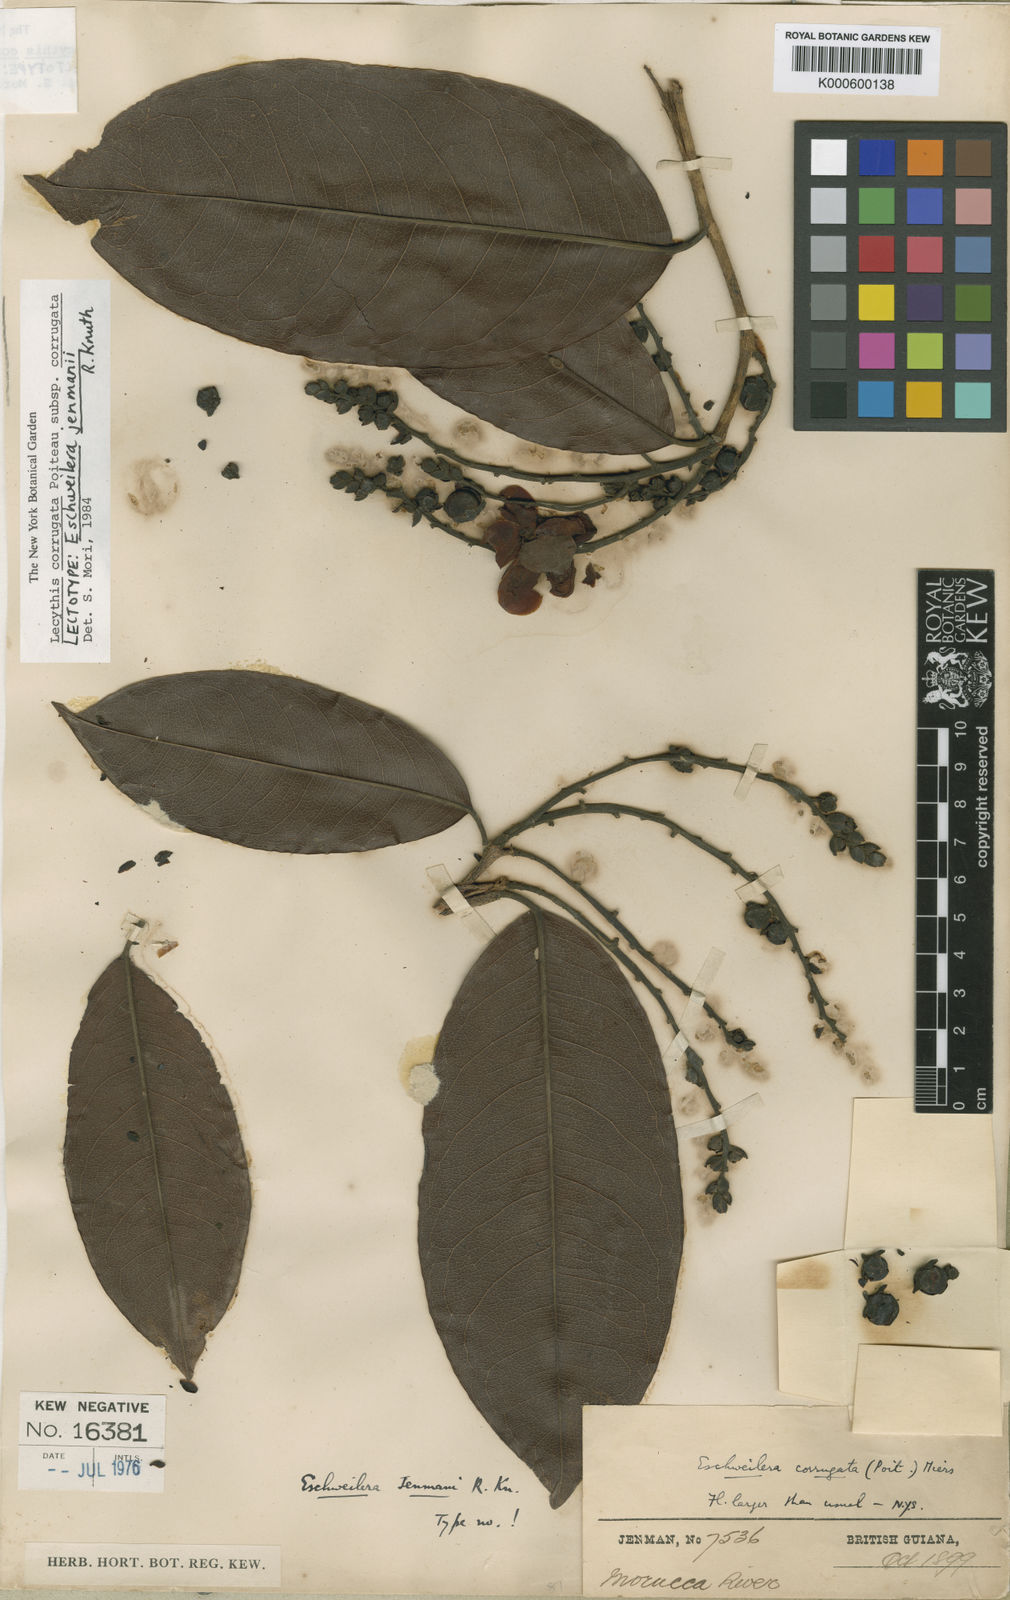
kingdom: Plantae
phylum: Tracheophyta
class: Magnoliopsida
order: Ericales
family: Lecythidaceae
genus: Lecythis
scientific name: Lecythis corrugata
